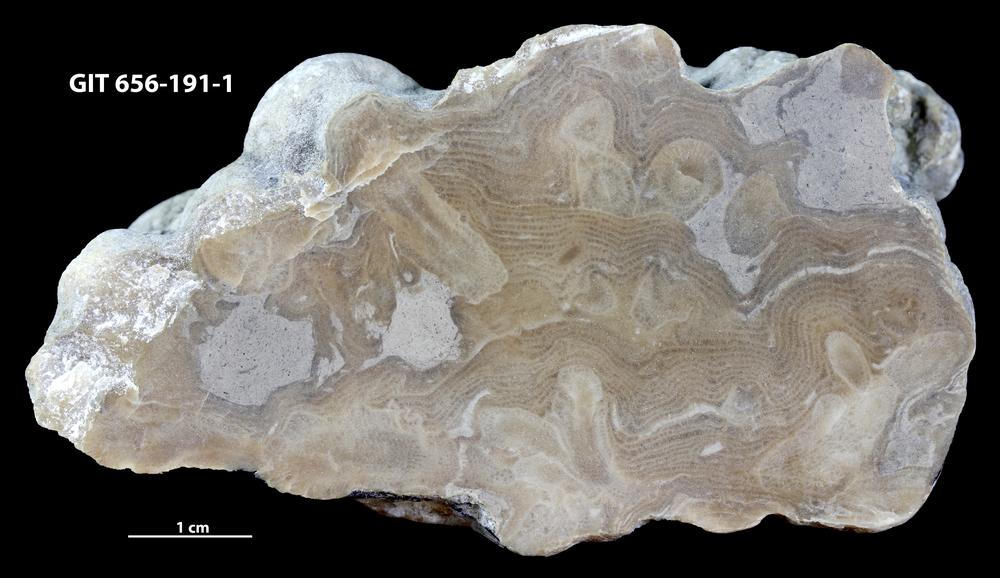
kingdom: Animalia
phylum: Porifera
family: Syringostromellidae
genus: Syringostromella
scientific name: Syringostromella
